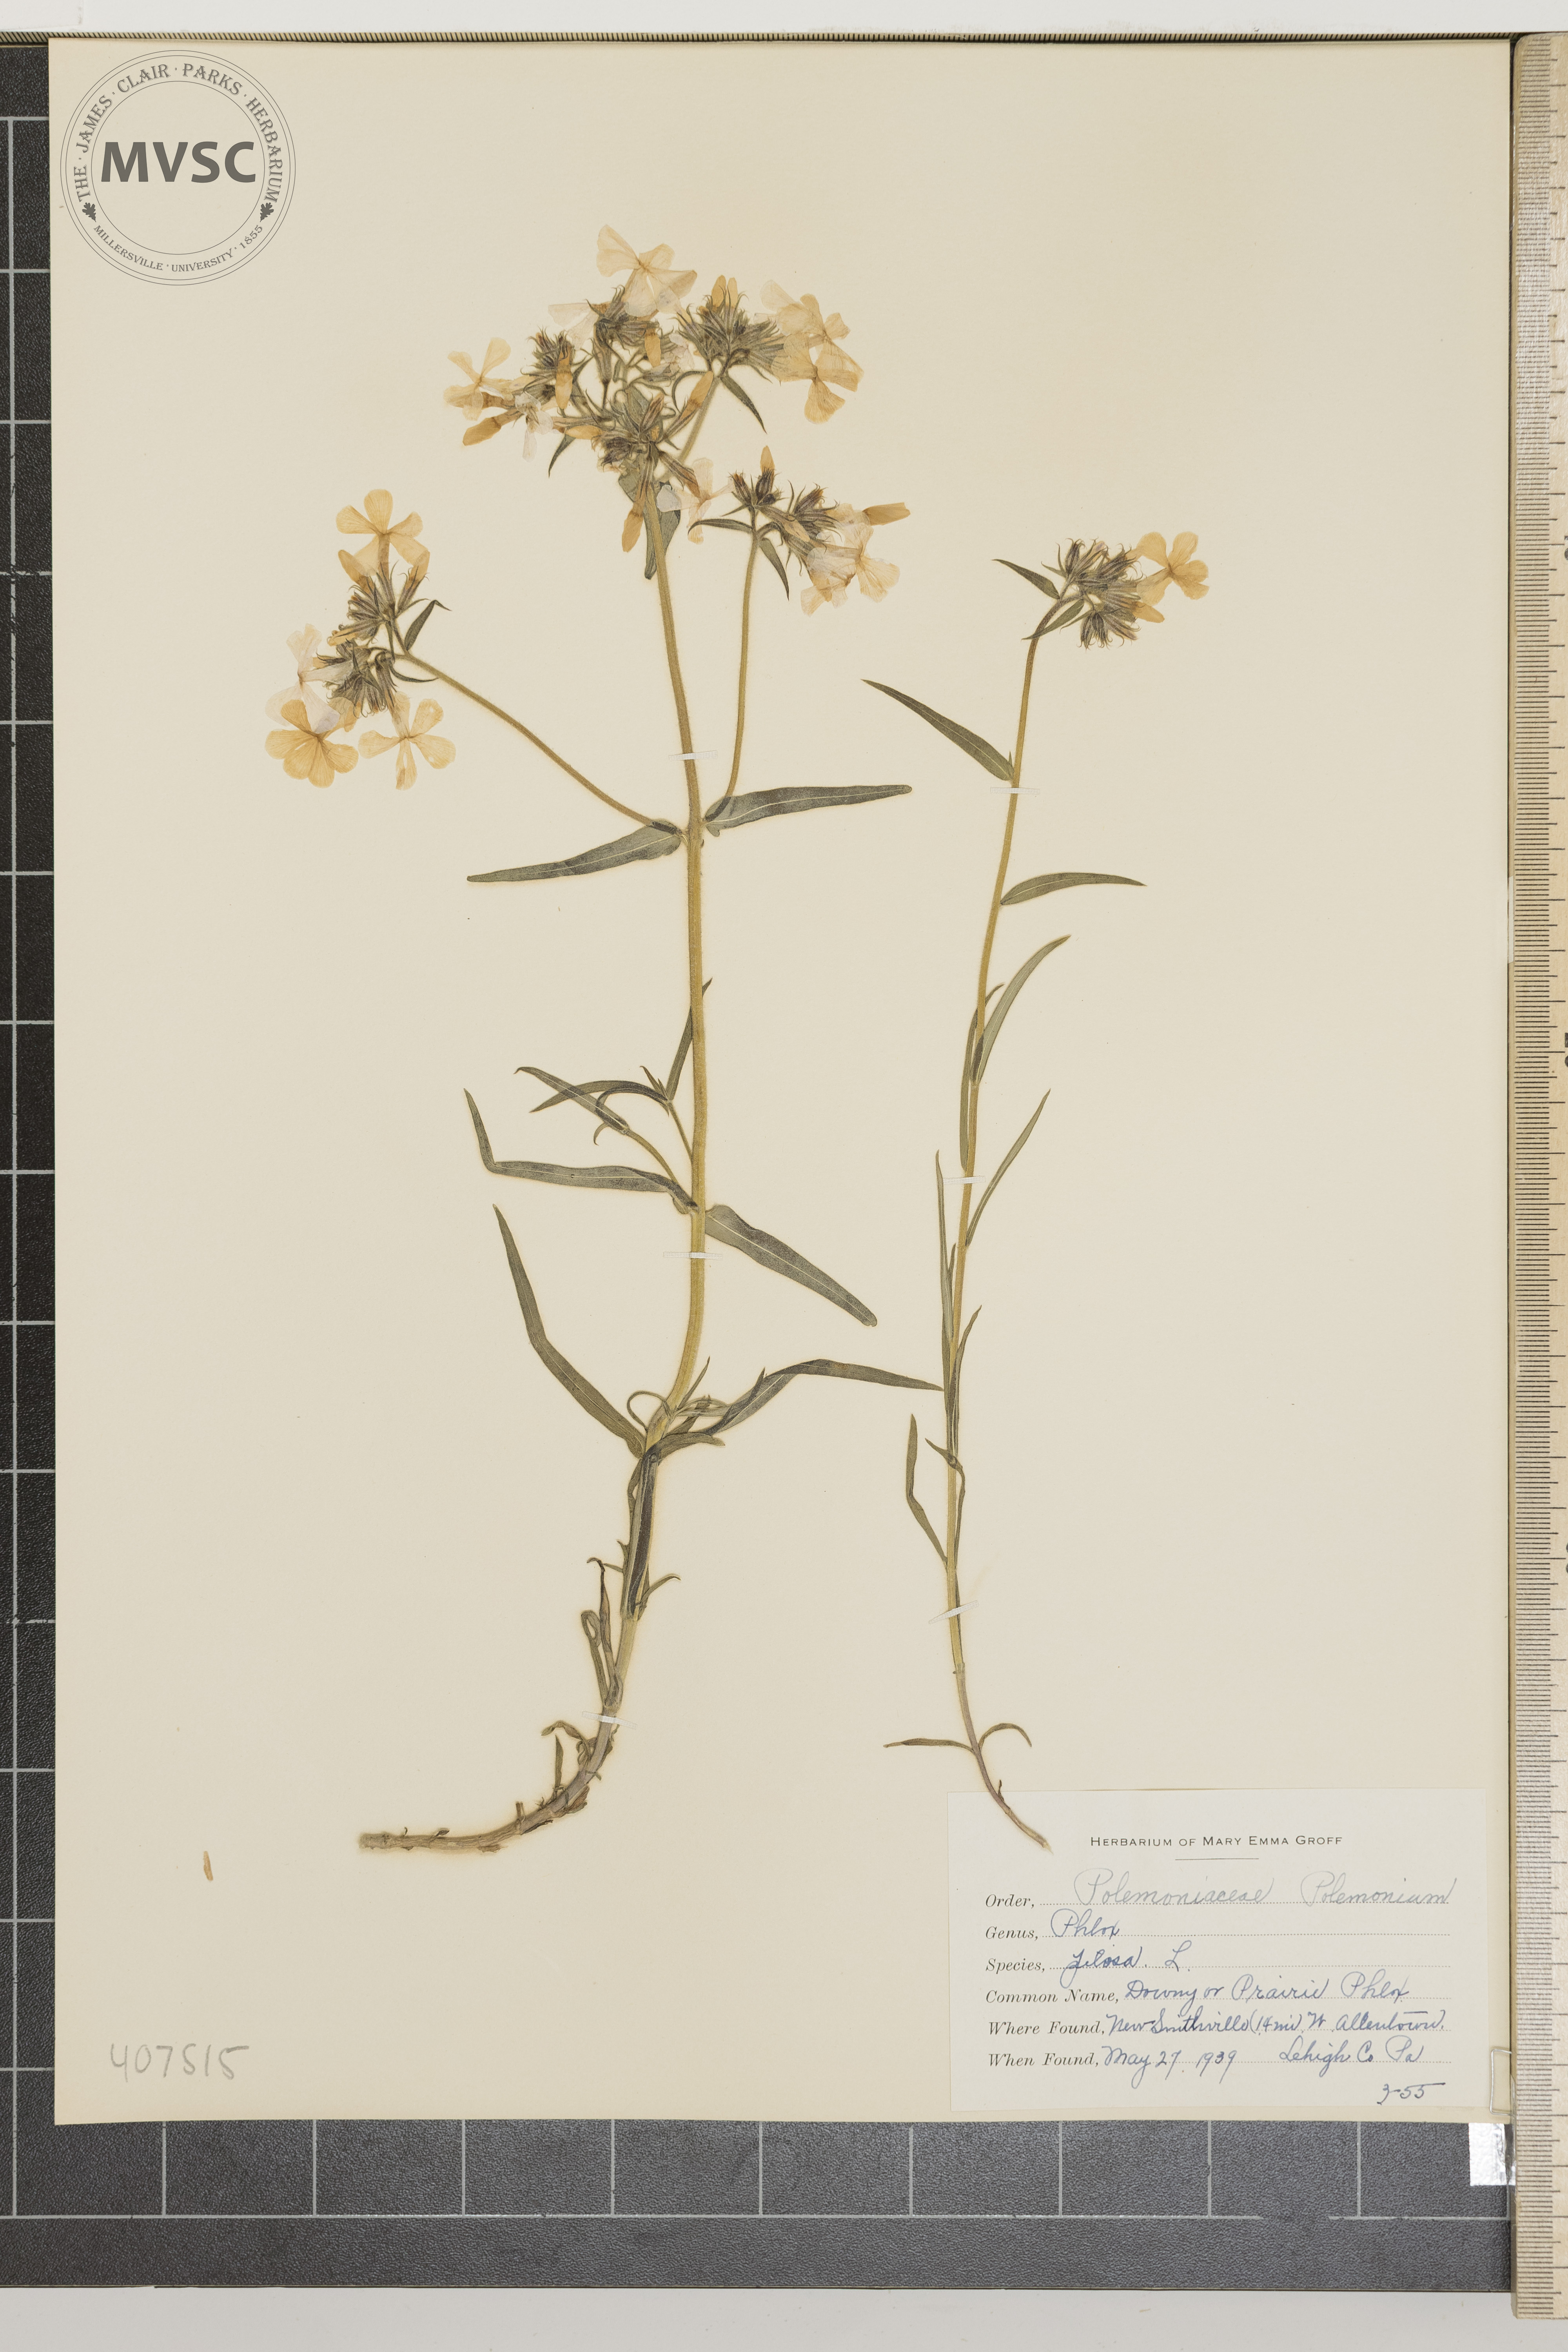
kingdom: Plantae
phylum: Tracheophyta
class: Magnoliopsida
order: Ericales
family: Polemoniaceae
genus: Phlox
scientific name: Phlox pilosa
